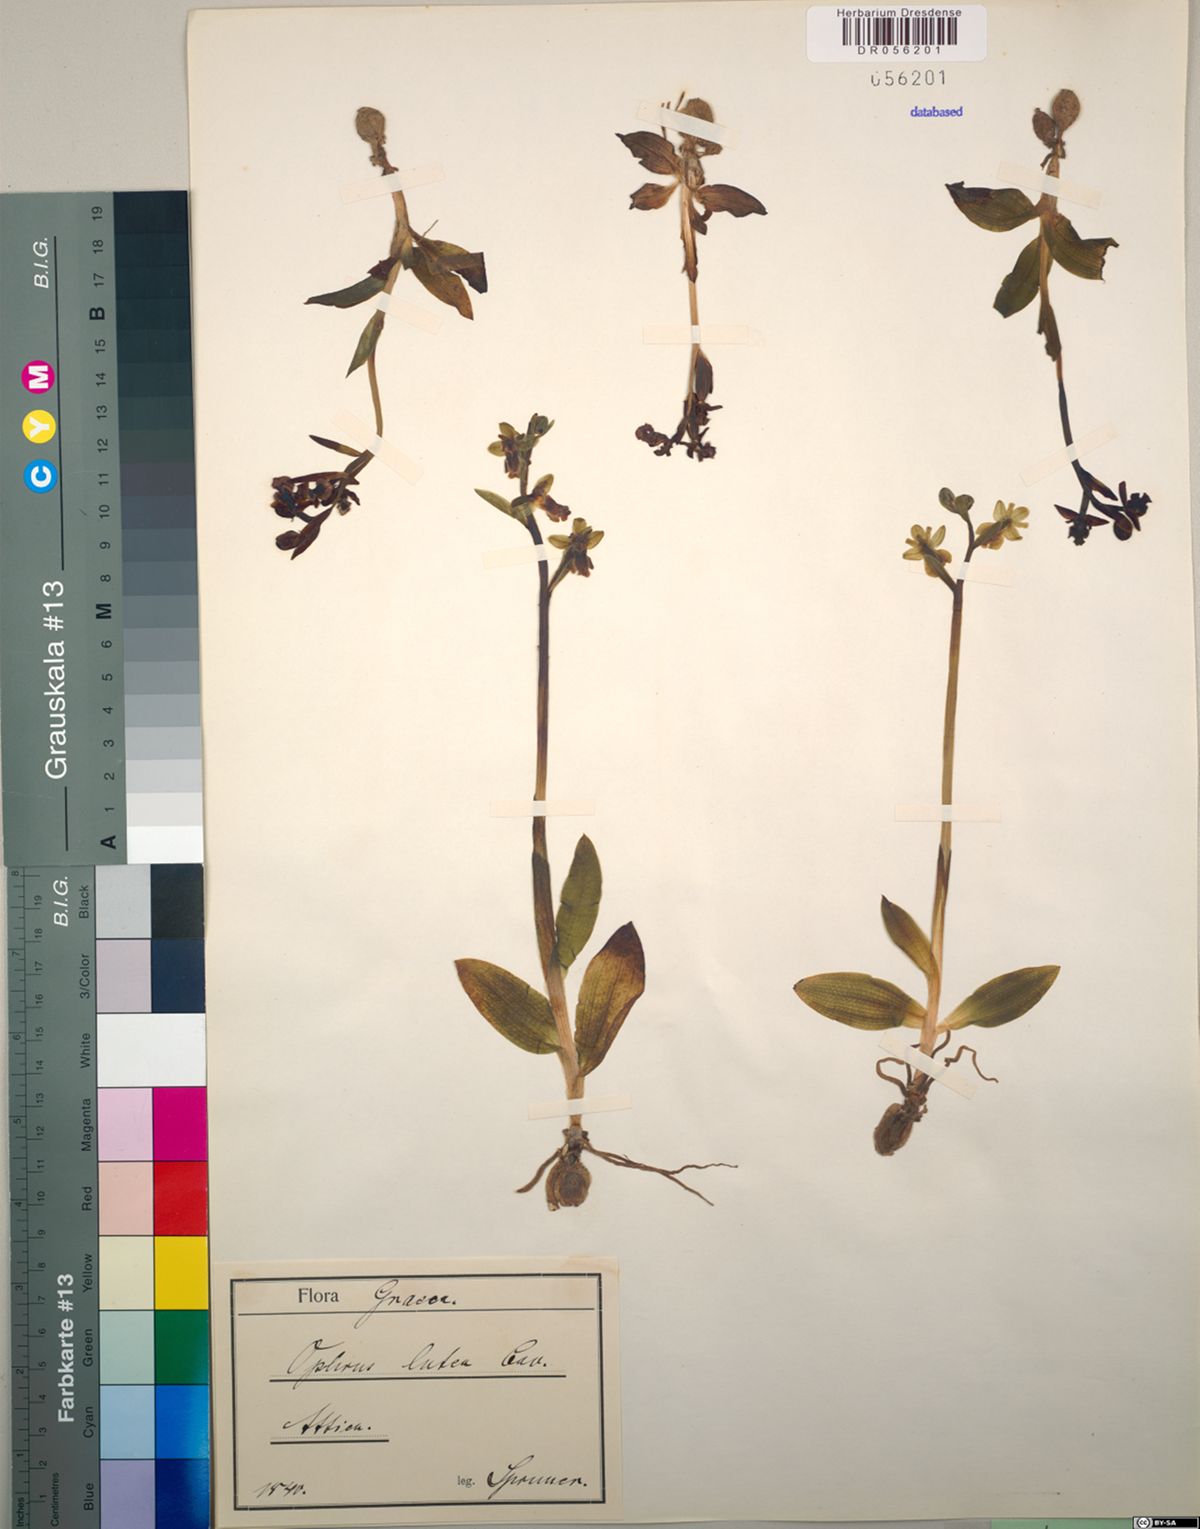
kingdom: Plantae
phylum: Tracheophyta
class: Liliopsida
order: Asparagales
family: Orchidaceae
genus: Ophrys
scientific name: Ophrys lutea
